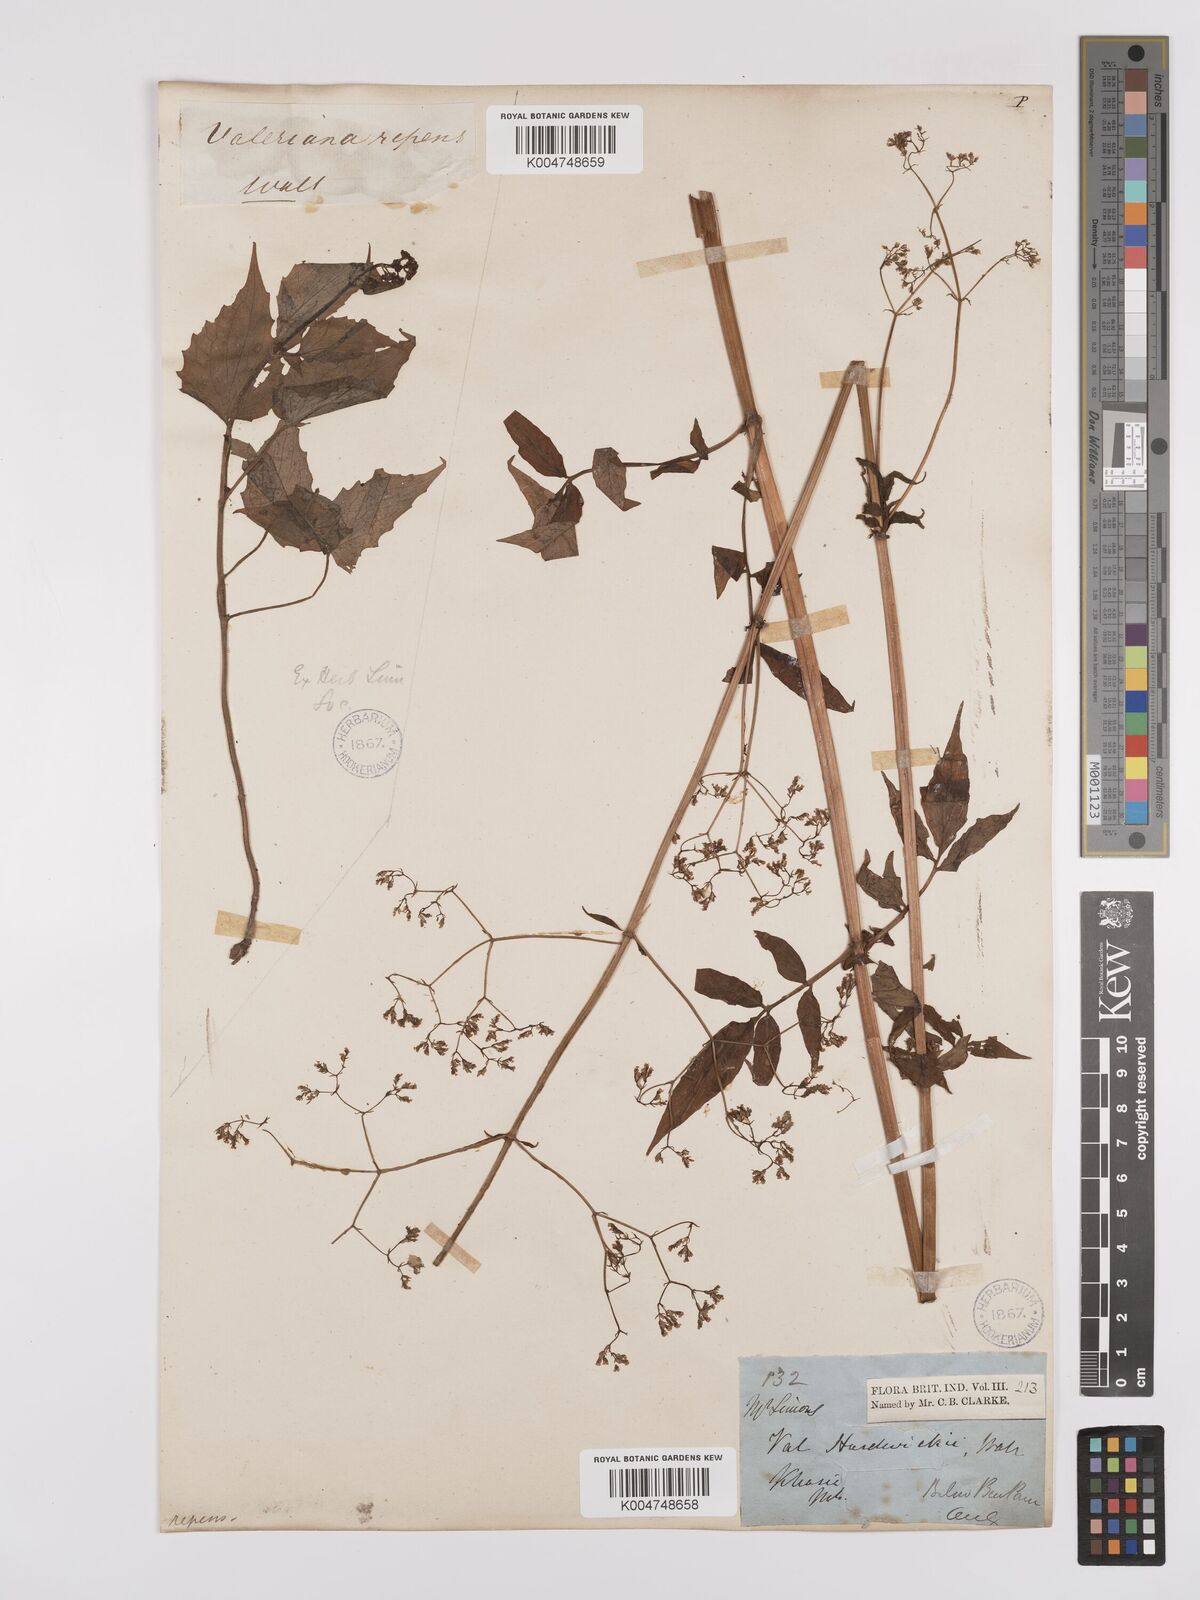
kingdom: Plantae
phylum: Tracheophyta
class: Magnoliopsida
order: Dipsacales
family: Caprifoliaceae
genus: Valeriana
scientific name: Valeriana hardwickei
